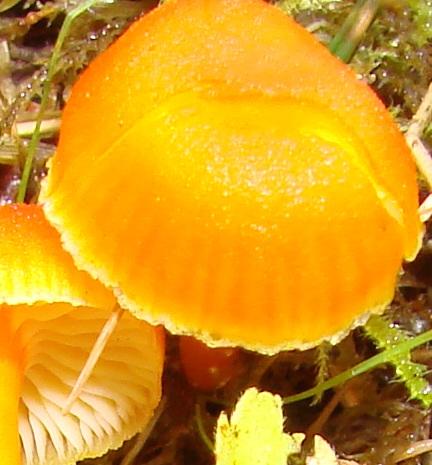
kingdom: Fungi
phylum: Basidiomycota
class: Agaricomycetes
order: Agaricales
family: Hygrophoraceae
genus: Hygrocybe
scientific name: Hygrocybe miniata
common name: mønje-vokshat
